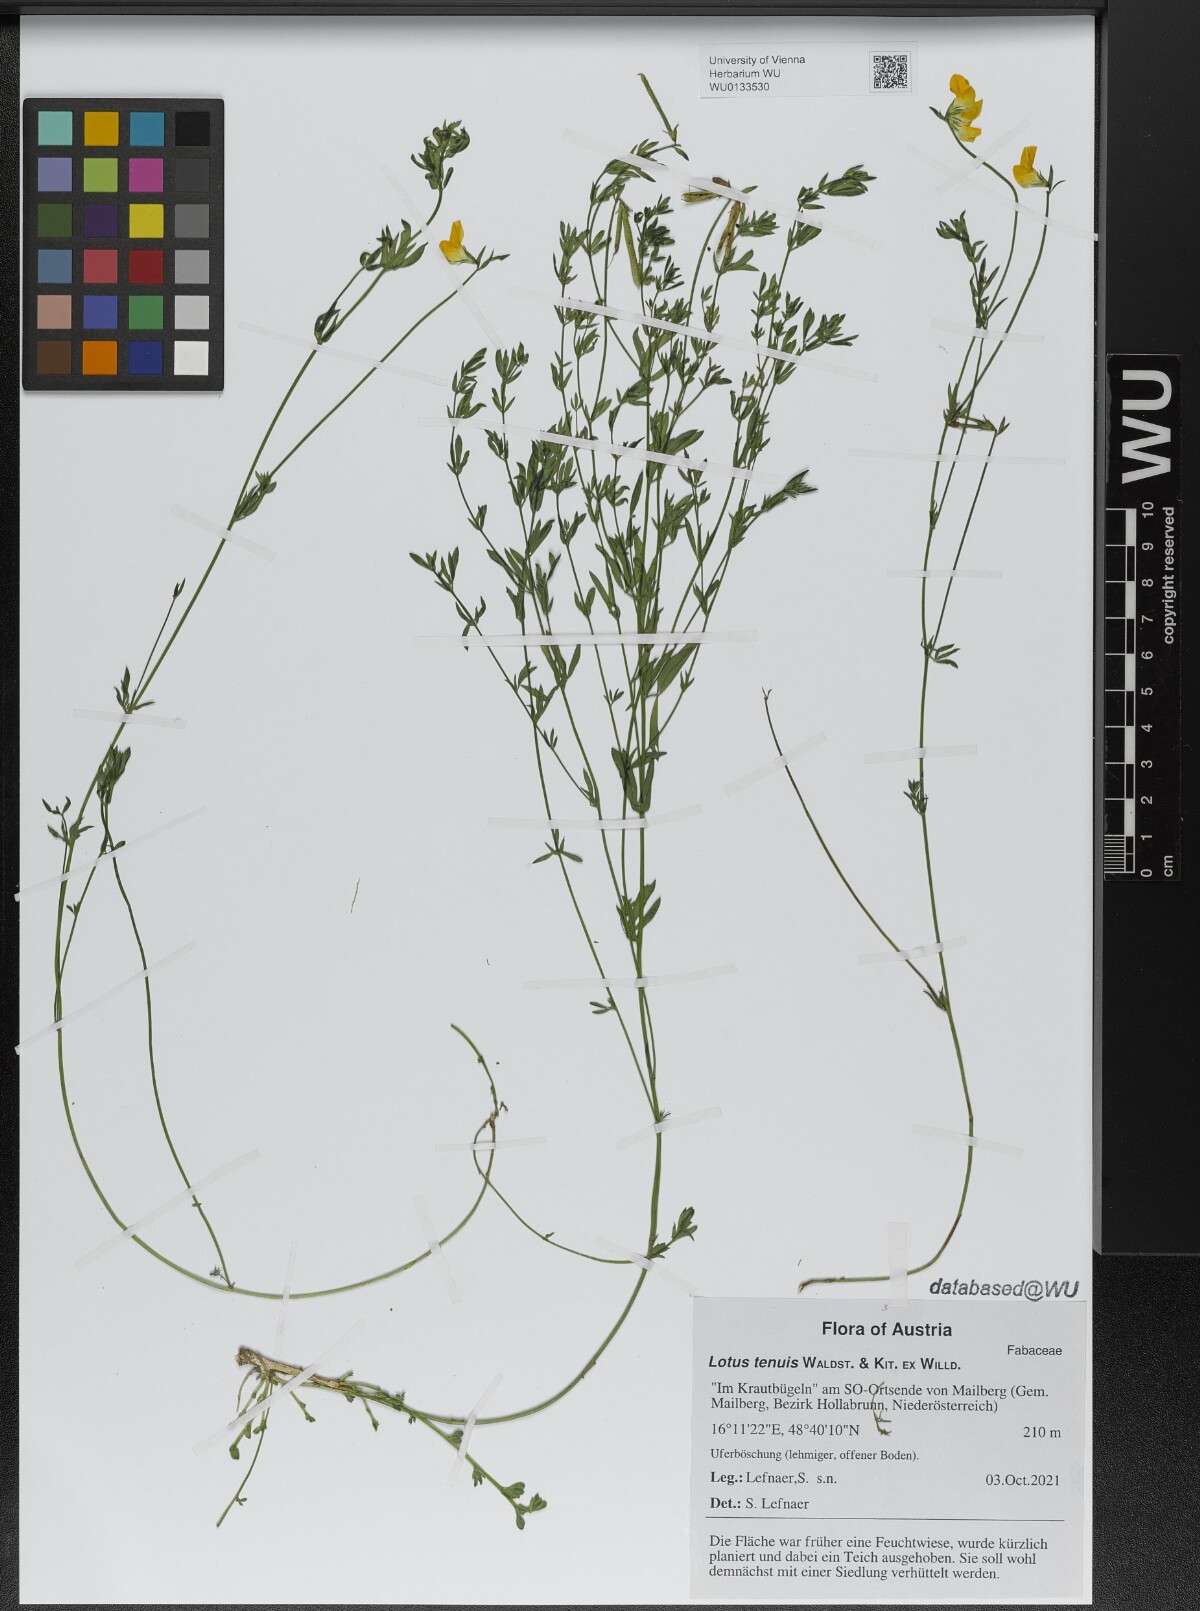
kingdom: Plantae
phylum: Tracheophyta
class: Magnoliopsida
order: Fabales
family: Fabaceae
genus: Lotus
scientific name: Lotus tenuis
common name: Narrow-leaved bird's-foot-trefoil
